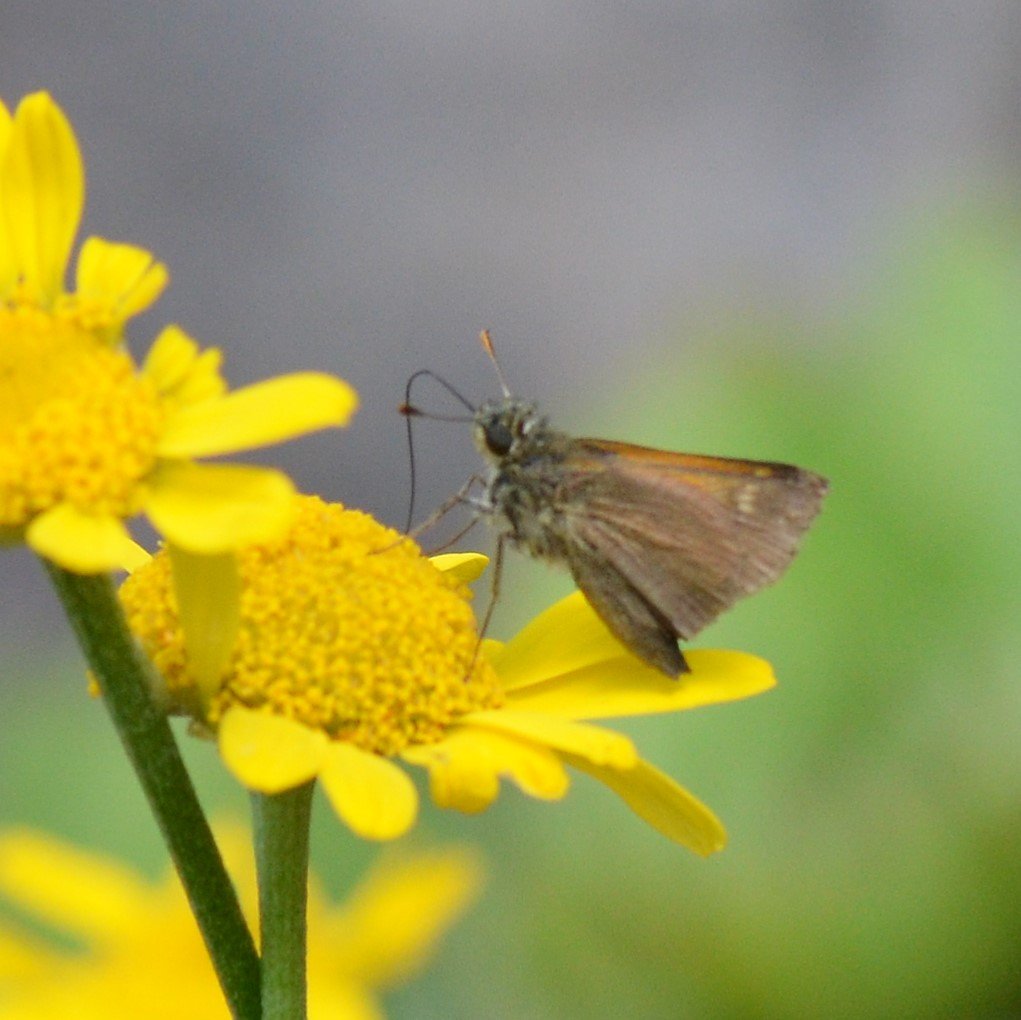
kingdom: Animalia
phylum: Arthropoda
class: Insecta
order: Lepidoptera
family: Hesperiidae
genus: Polites
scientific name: Polites themistocles
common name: Tawny-edged Skipper
